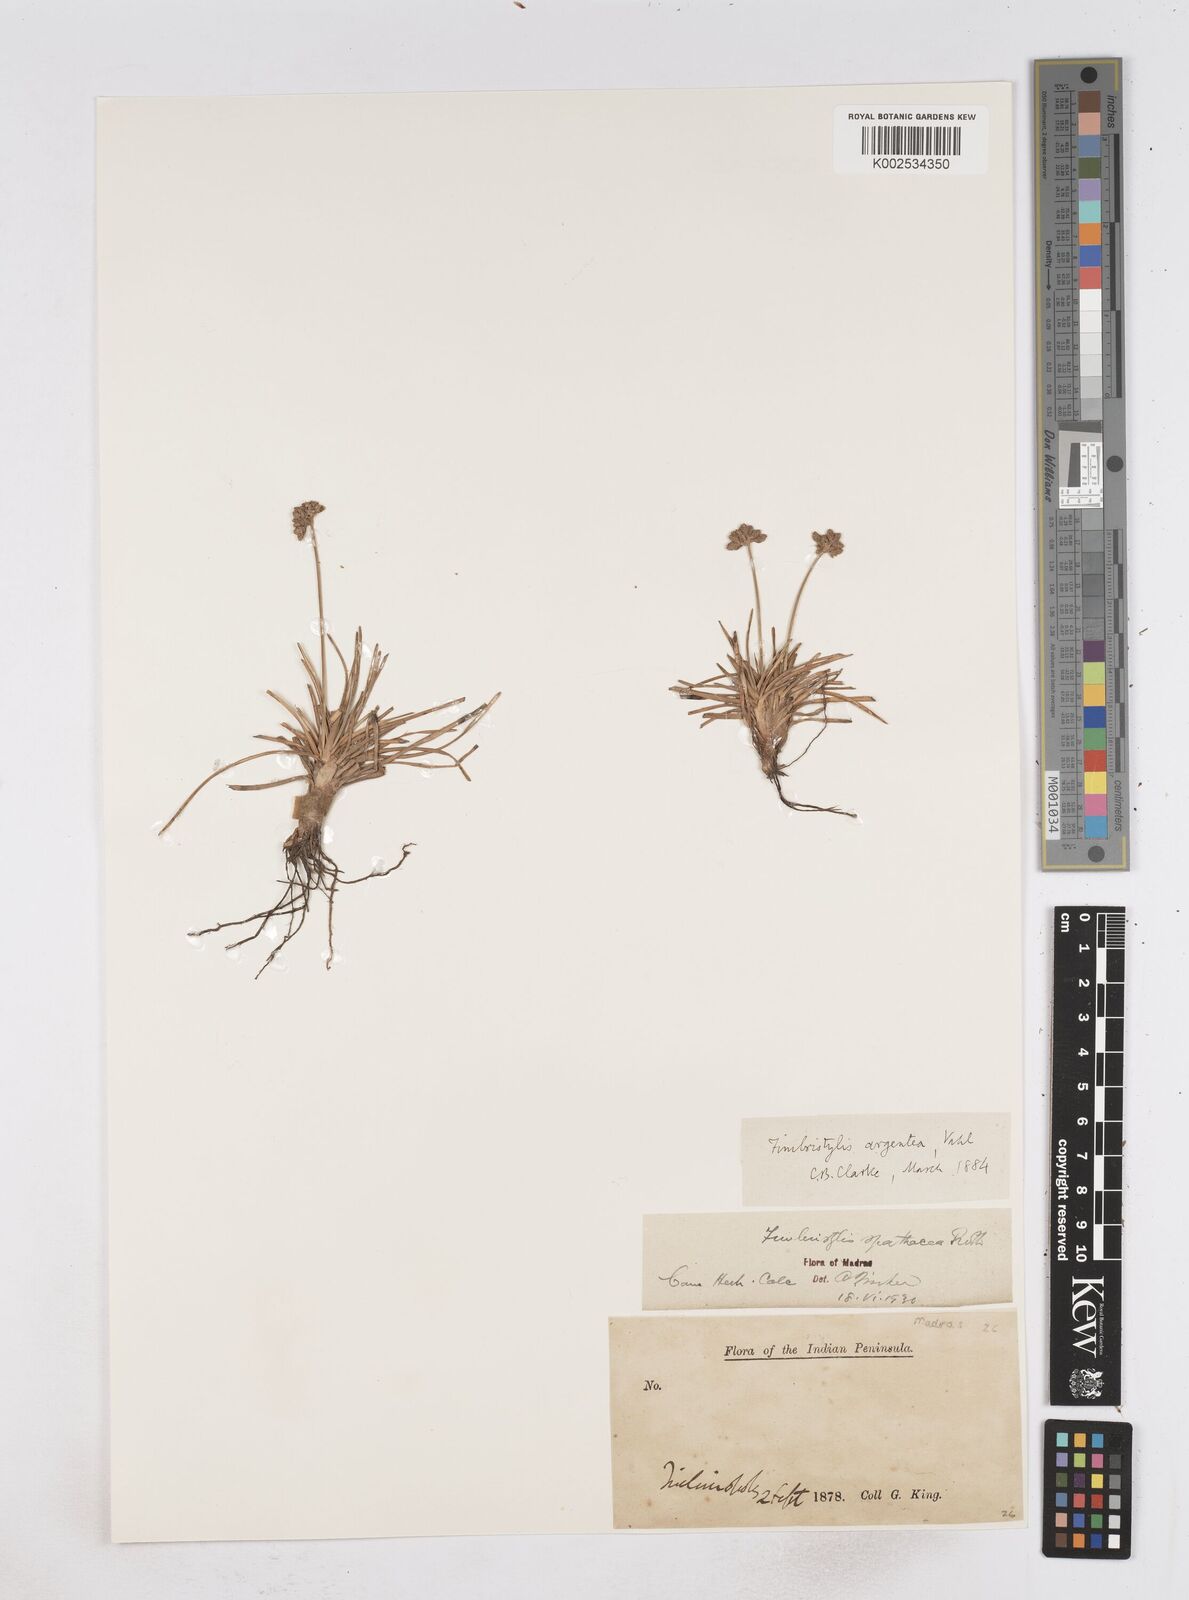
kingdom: Plantae
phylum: Tracheophyta
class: Liliopsida
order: Poales
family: Cyperaceae
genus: Fimbristylis
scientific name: Fimbristylis cymosa
